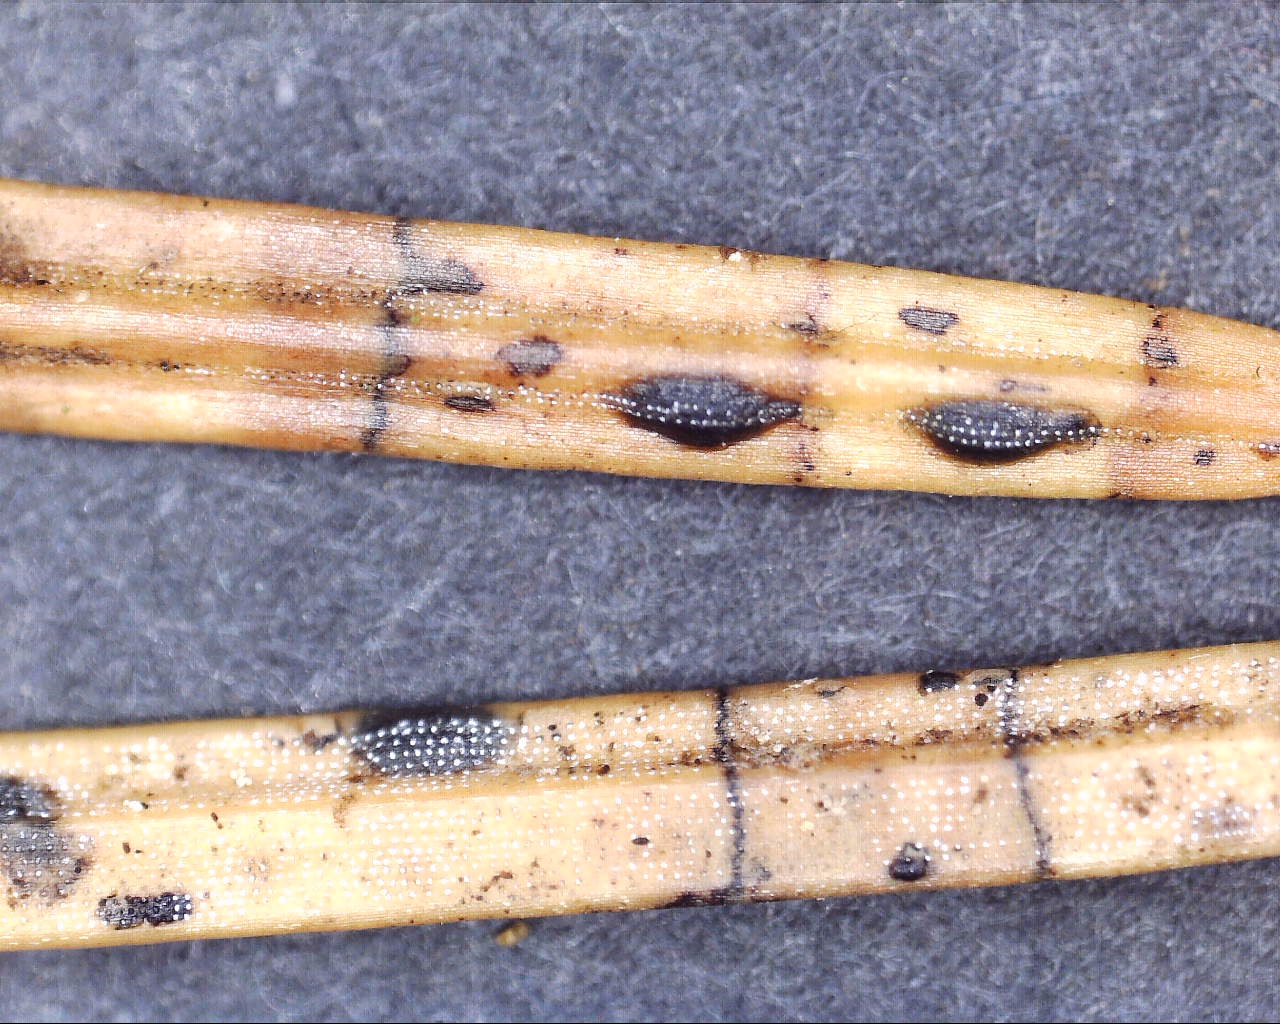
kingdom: Fungi
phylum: Ascomycota
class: Leotiomycetes
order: Rhytismatales
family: Rhytismataceae
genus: Lophodermium
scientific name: Lophodermium
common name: fureplet
